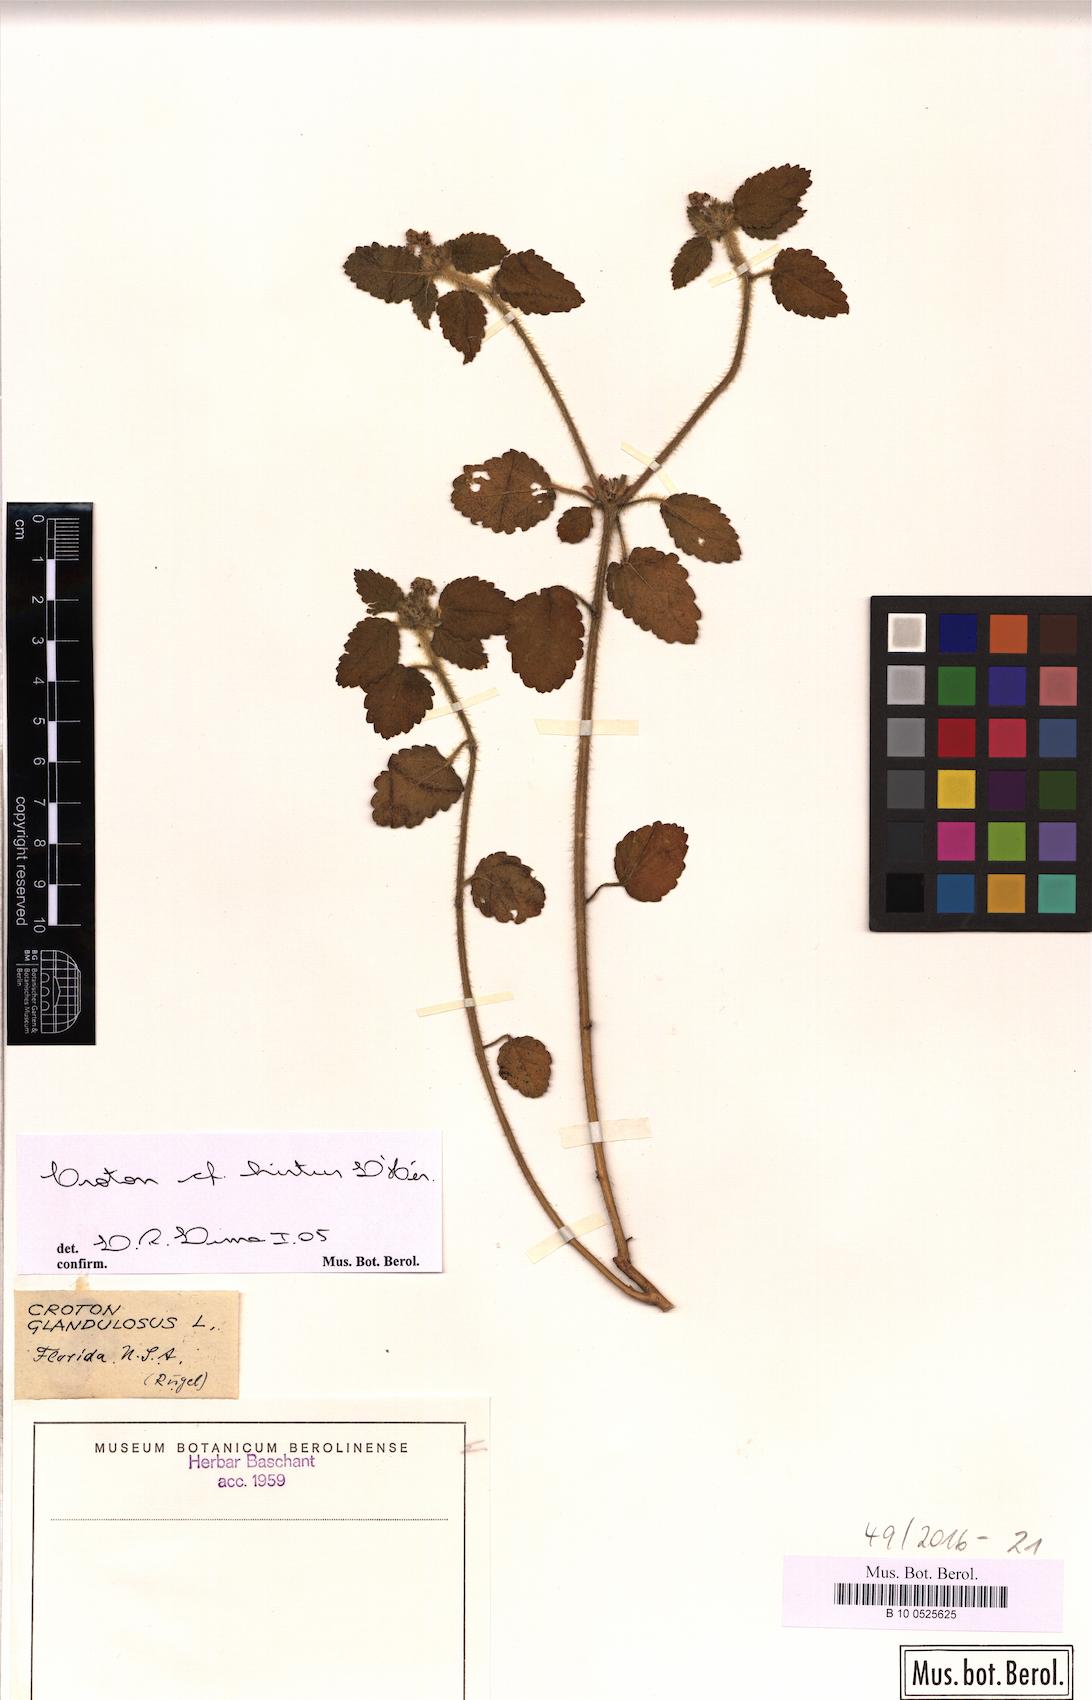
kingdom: Plantae
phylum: Tracheophyta
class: Magnoliopsida
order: Malpighiales
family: Euphorbiaceae
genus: Croton
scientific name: Croton hirtus
